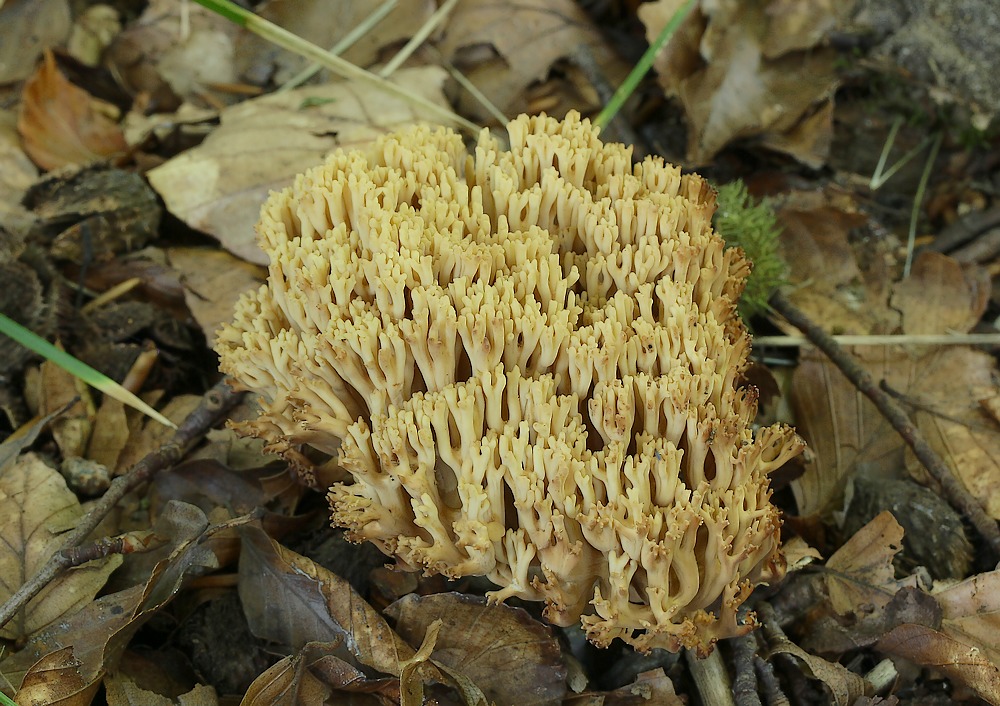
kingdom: Fungi
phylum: Basidiomycota
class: Agaricomycetes
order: Gomphales
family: Gomphaceae
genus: Ramaria
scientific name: Ramaria krieglsteineri
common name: smalsporet koralsvamp
